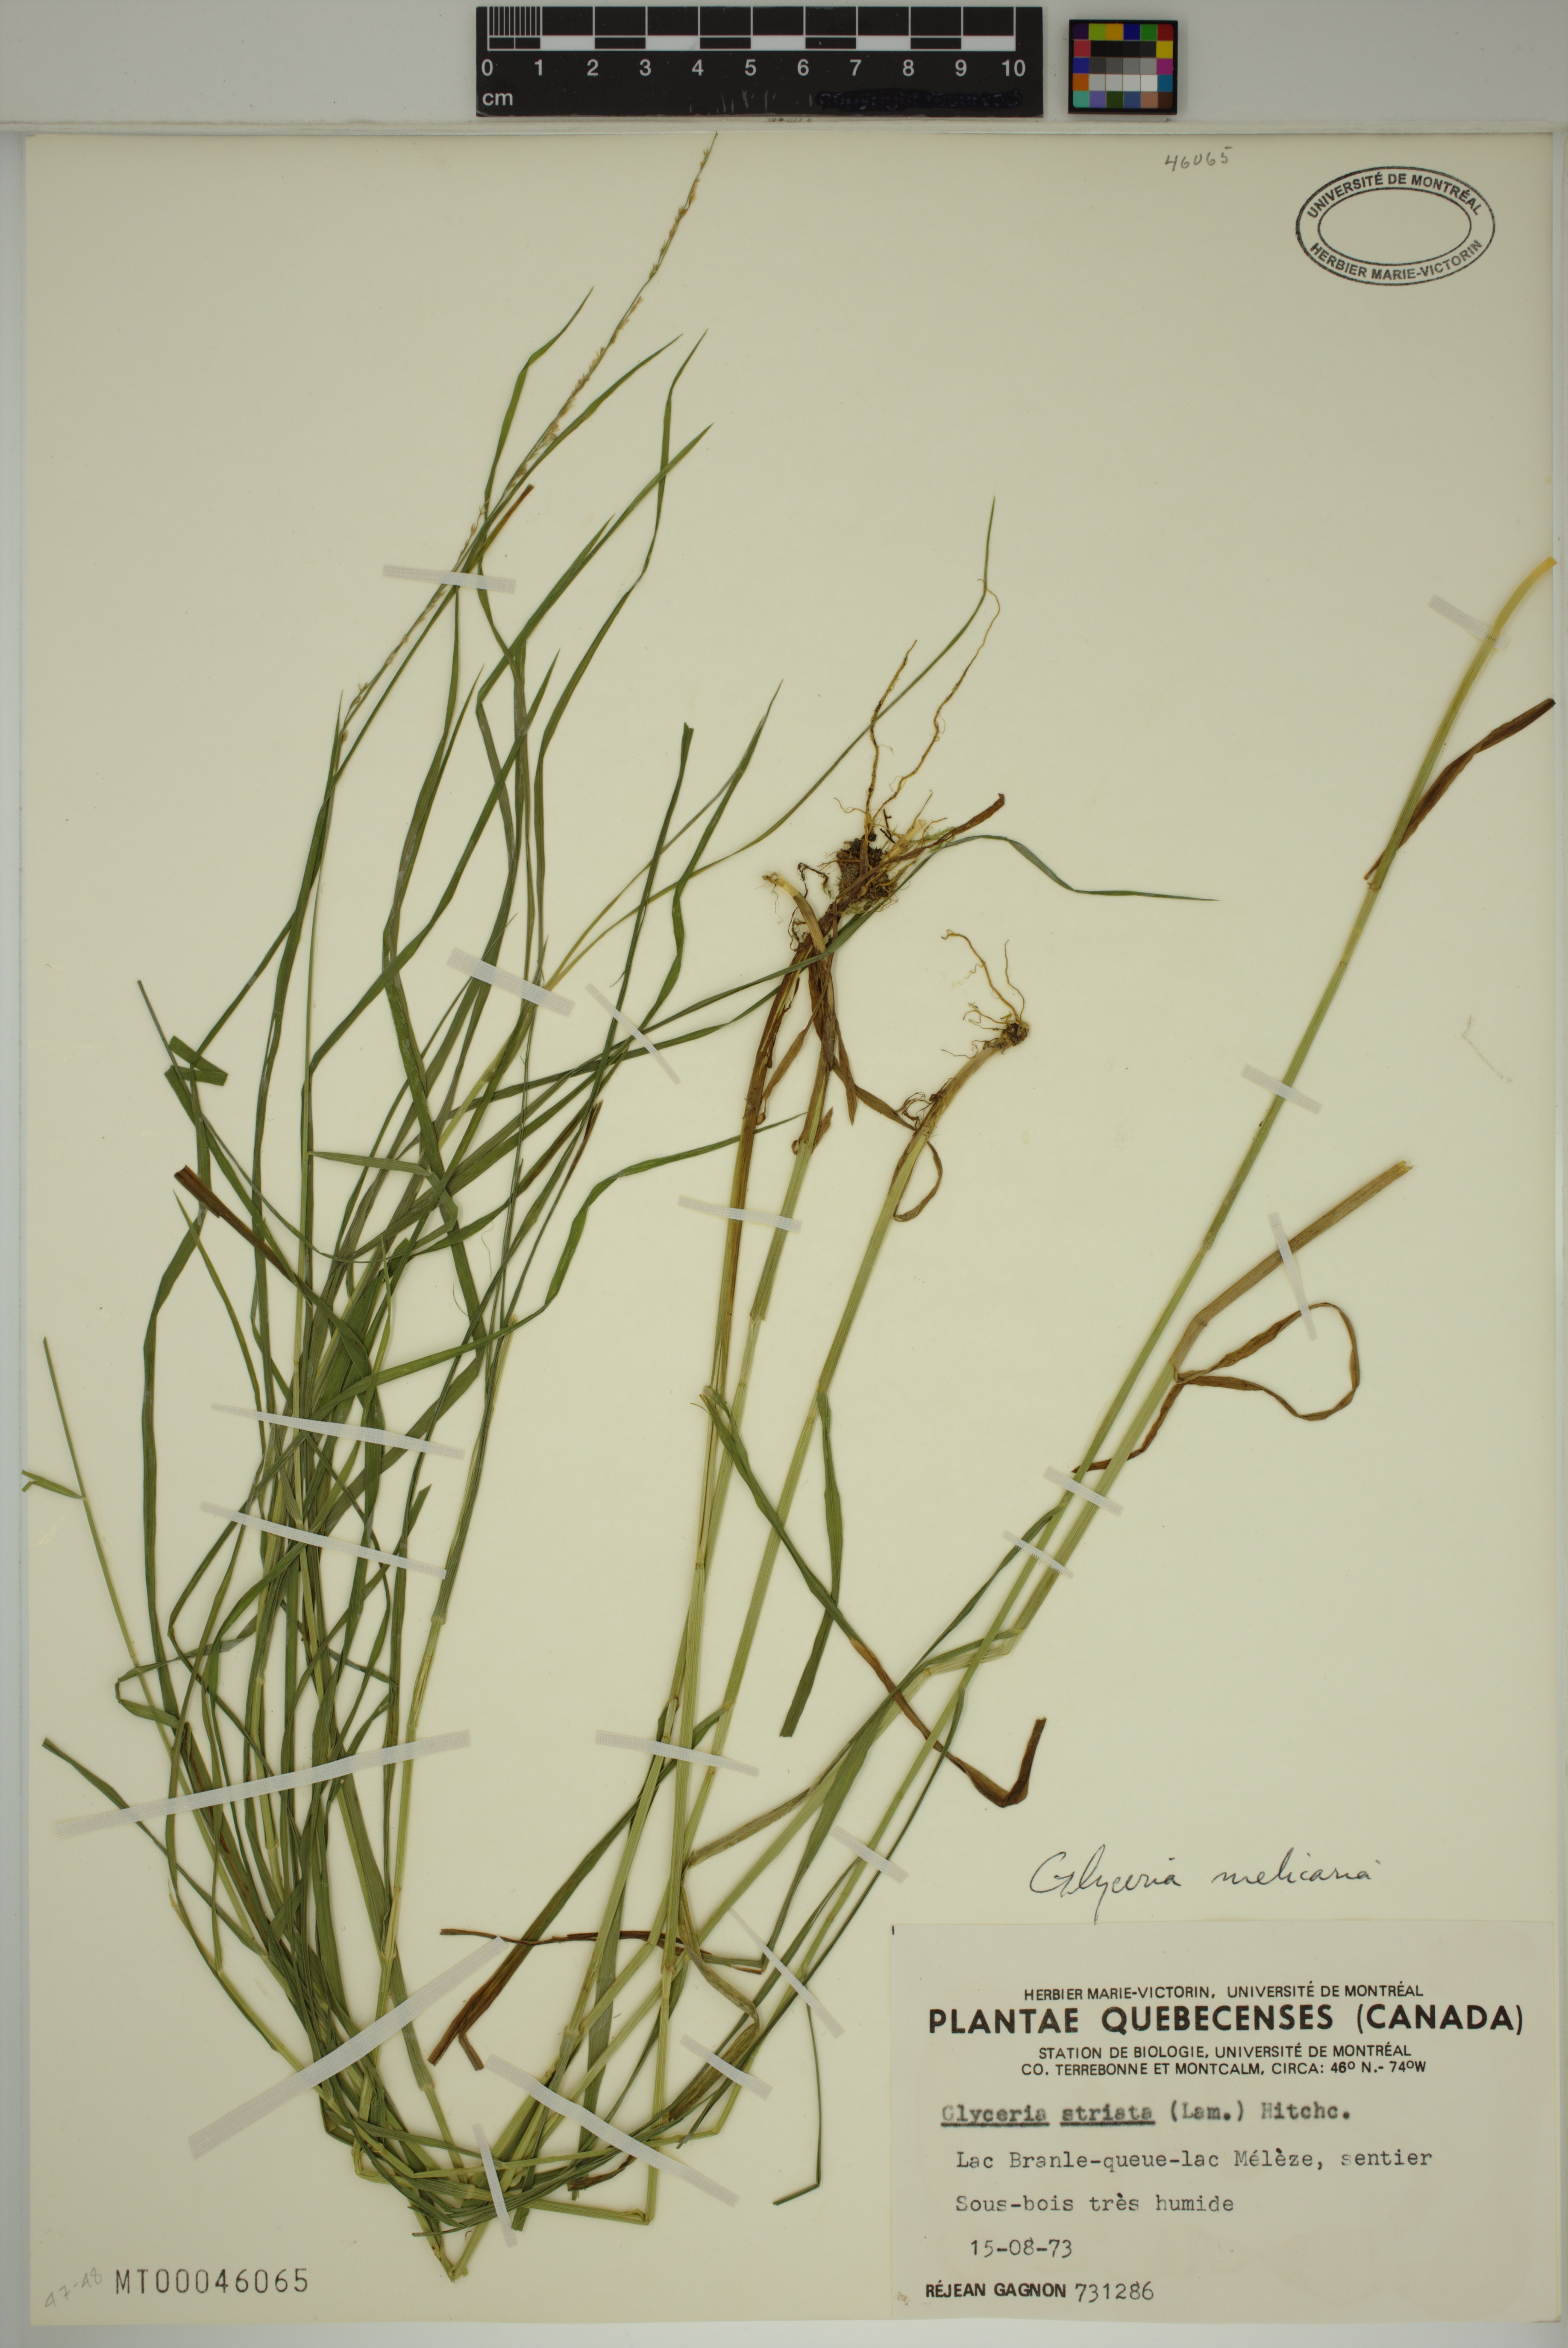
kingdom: Plantae
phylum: Tracheophyta
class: Liliopsida
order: Poales
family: Poaceae
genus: Glyceria
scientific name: Glyceria melicaria
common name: Long mannagrass
